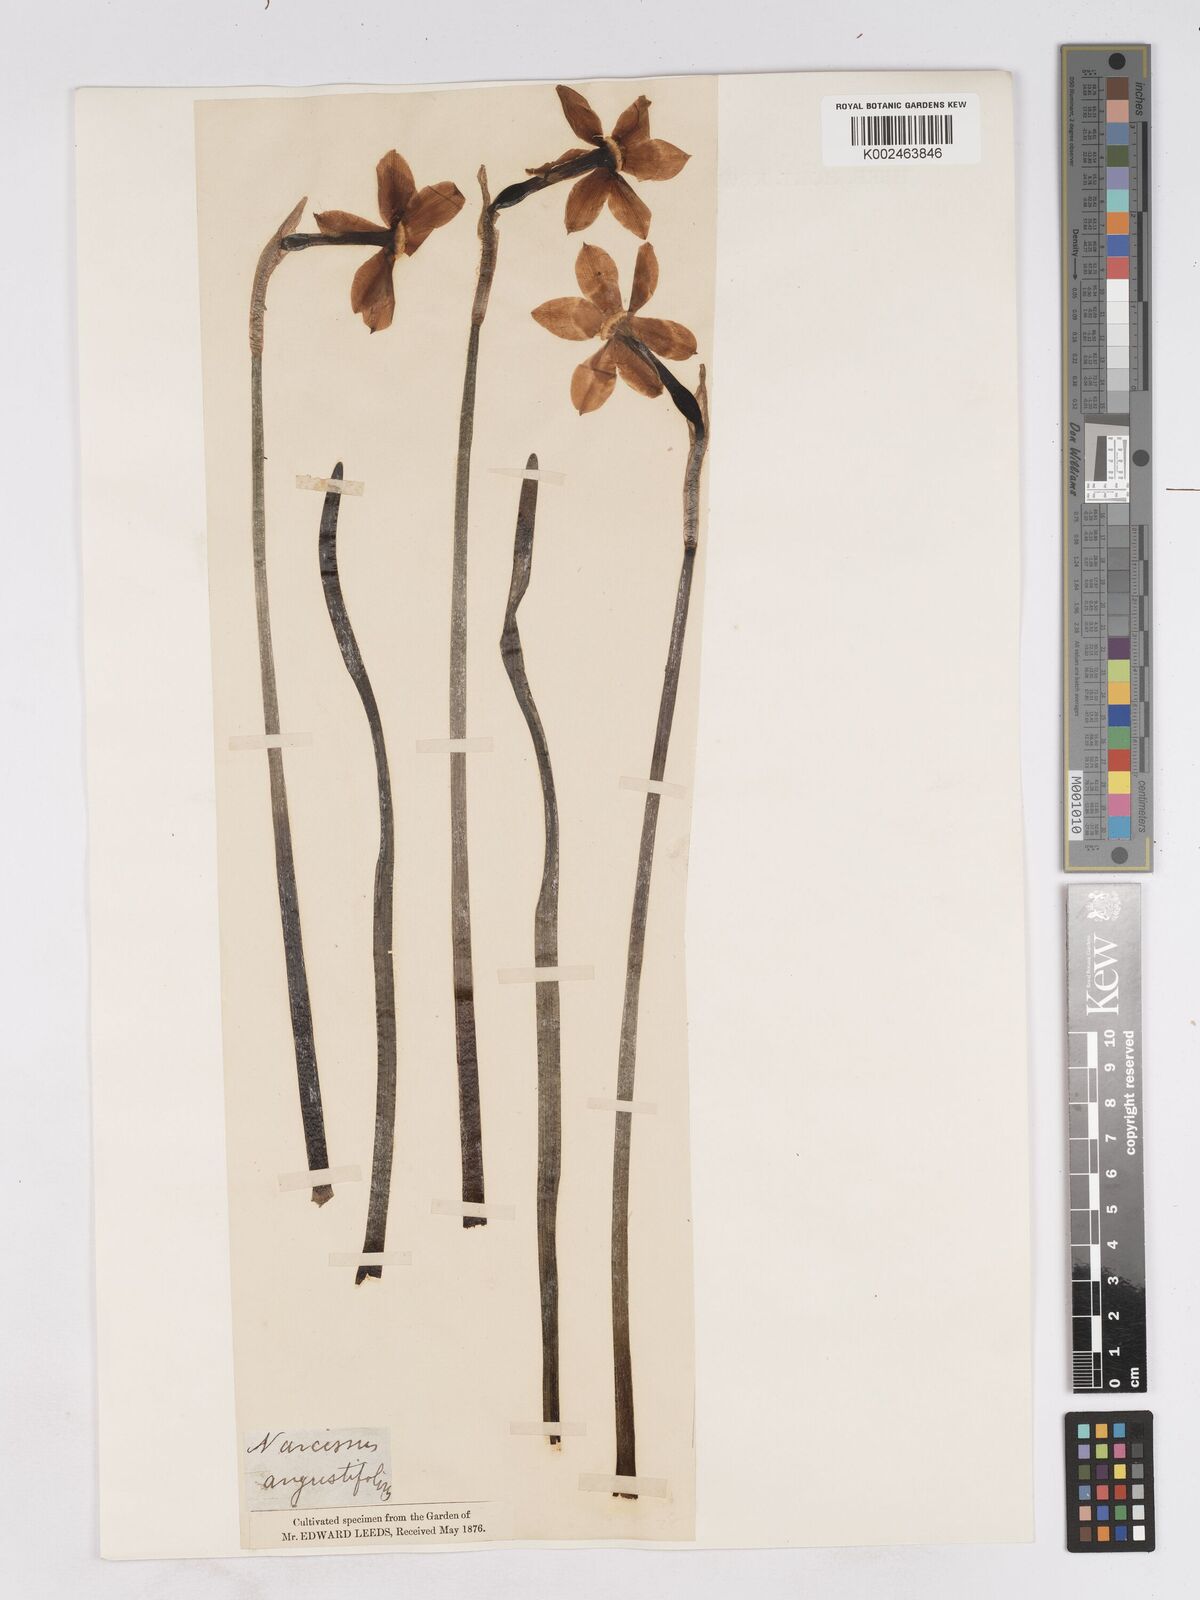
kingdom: Plantae
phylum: Tracheophyta
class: Liliopsida
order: Asparagales
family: Amaryllidaceae
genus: Narcissus
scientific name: Narcissus poeticus
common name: Pheasant's-eye daffodil
